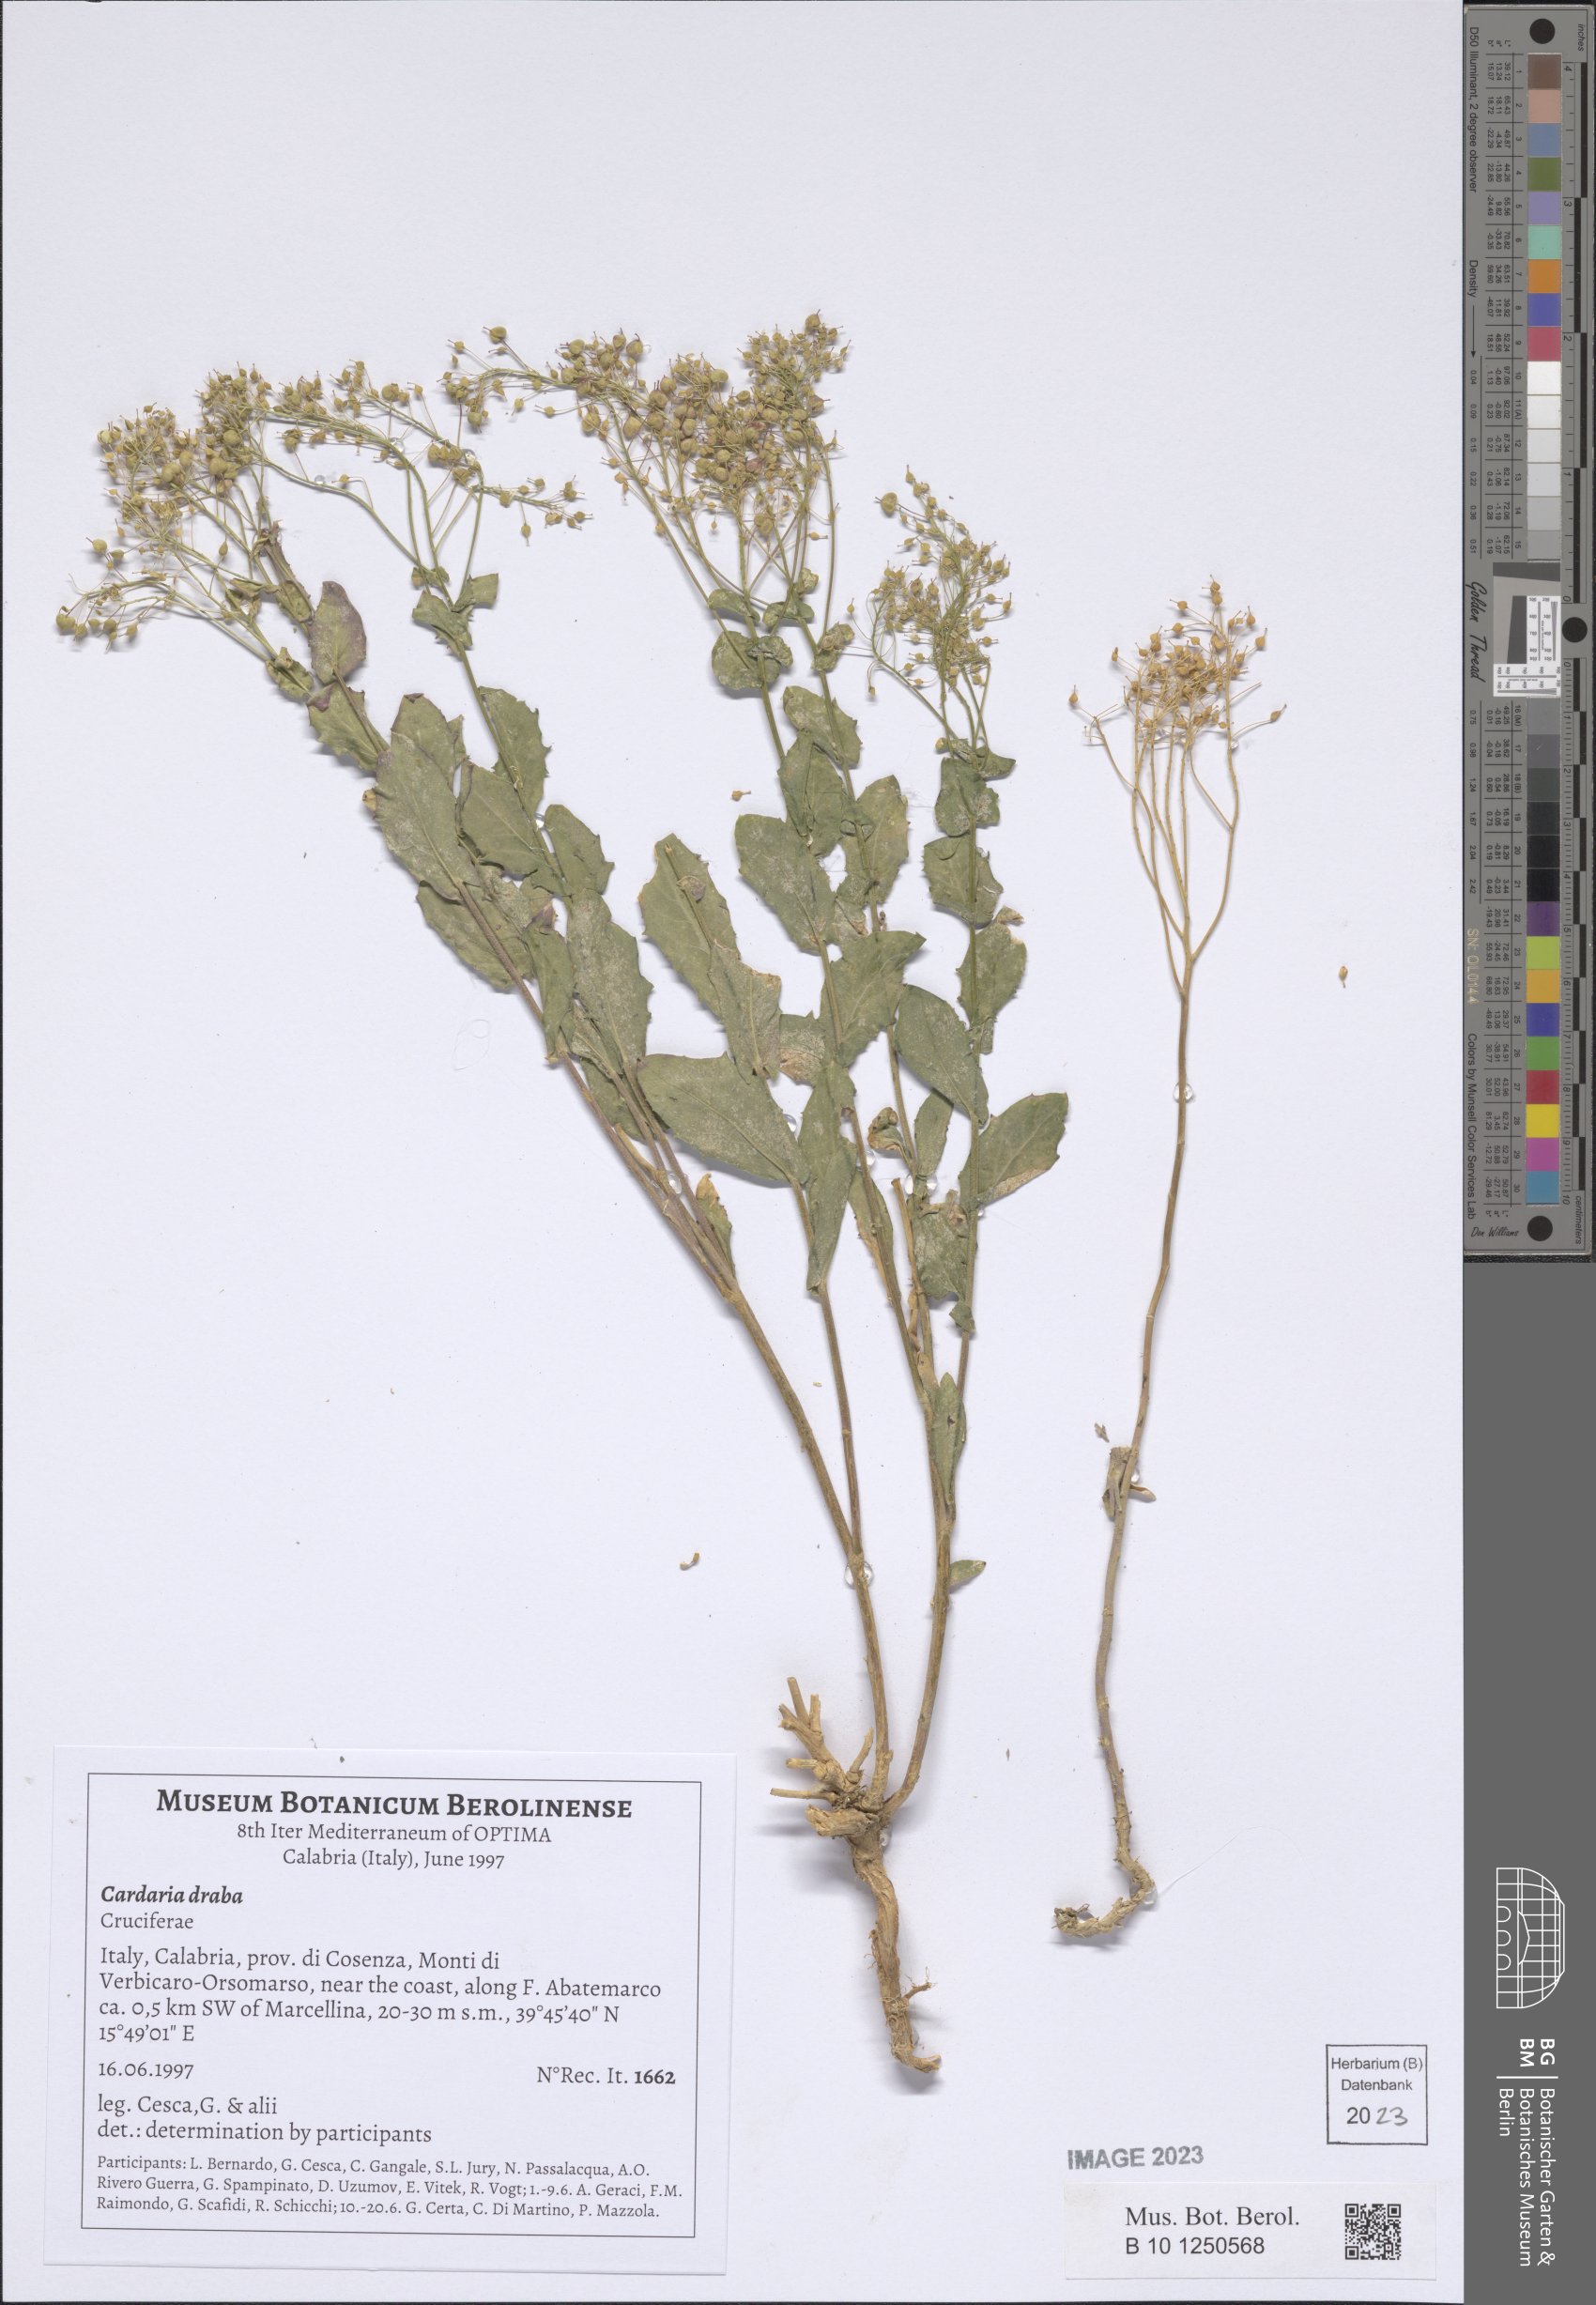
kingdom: Plantae
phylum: Tracheophyta
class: Magnoliopsida
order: Brassicales
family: Brassicaceae
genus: Lepidium
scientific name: Lepidium draba
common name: Hoary cress
